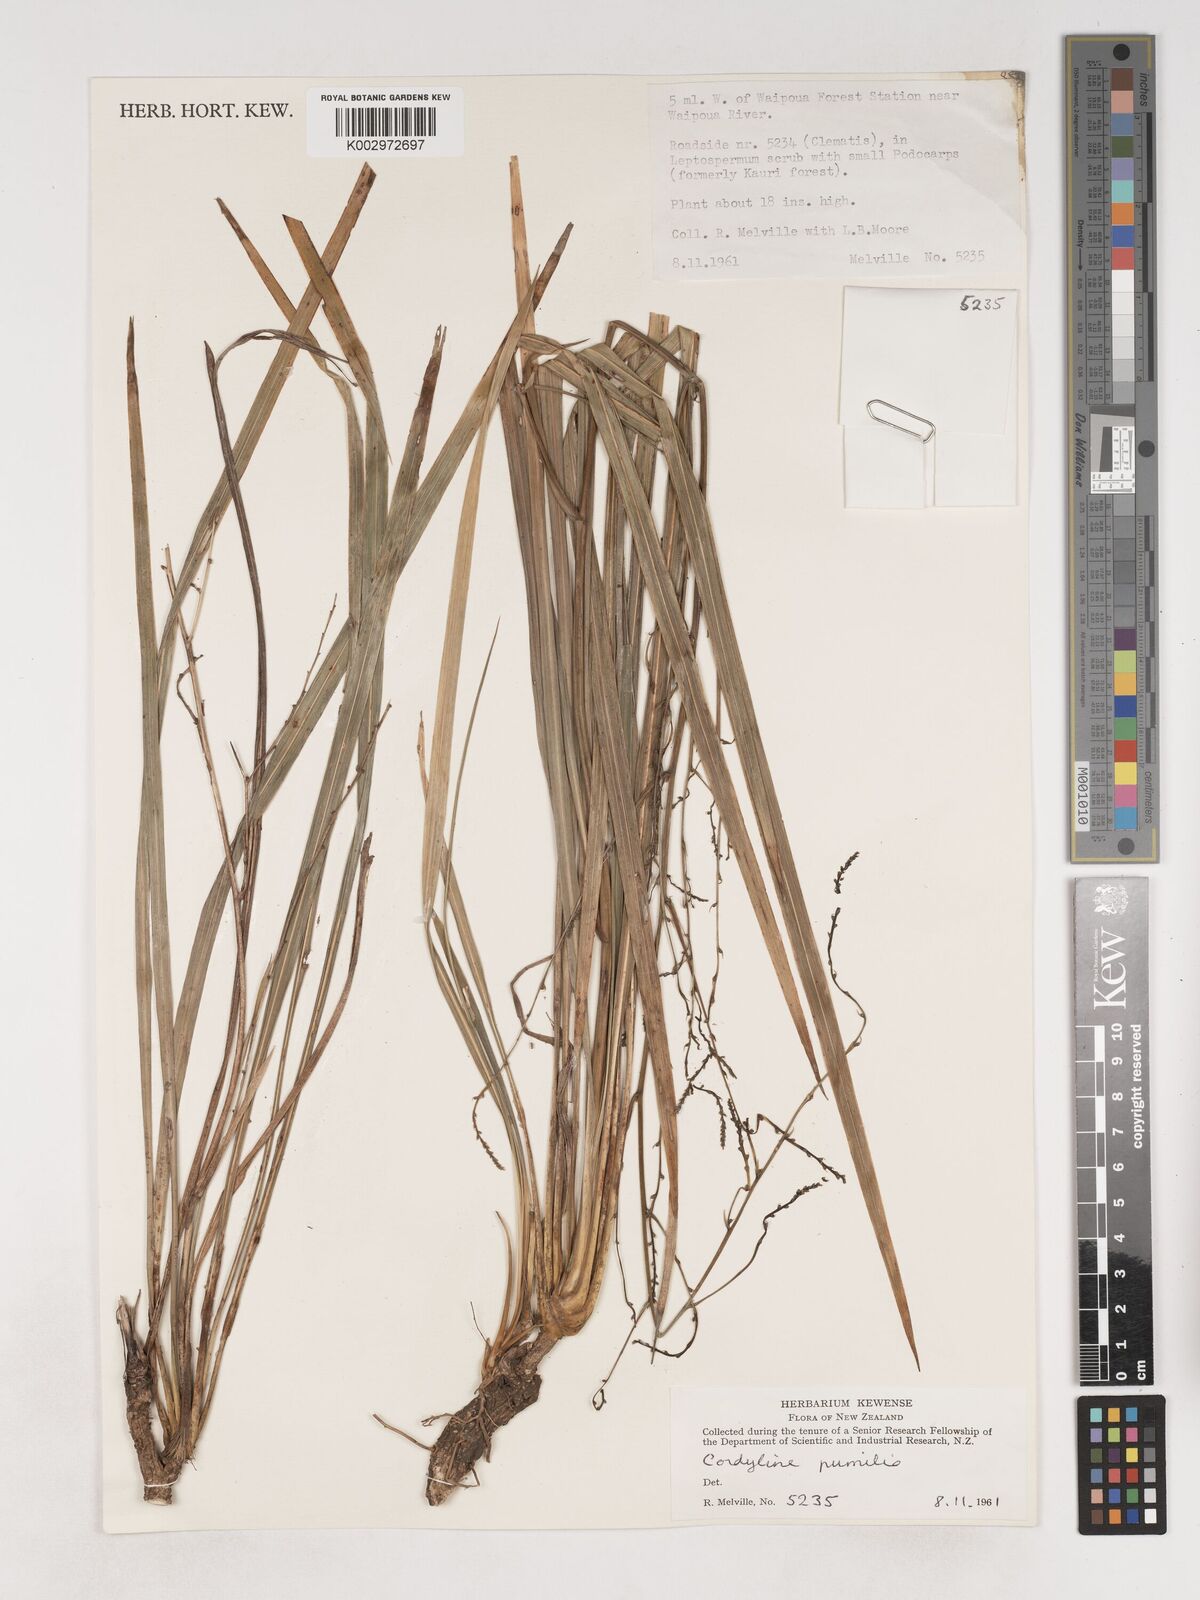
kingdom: Plantae
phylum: Tracheophyta
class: Liliopsida
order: Asparagales
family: Asparagaceae
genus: Cordyline
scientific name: Cordyline pumilio
